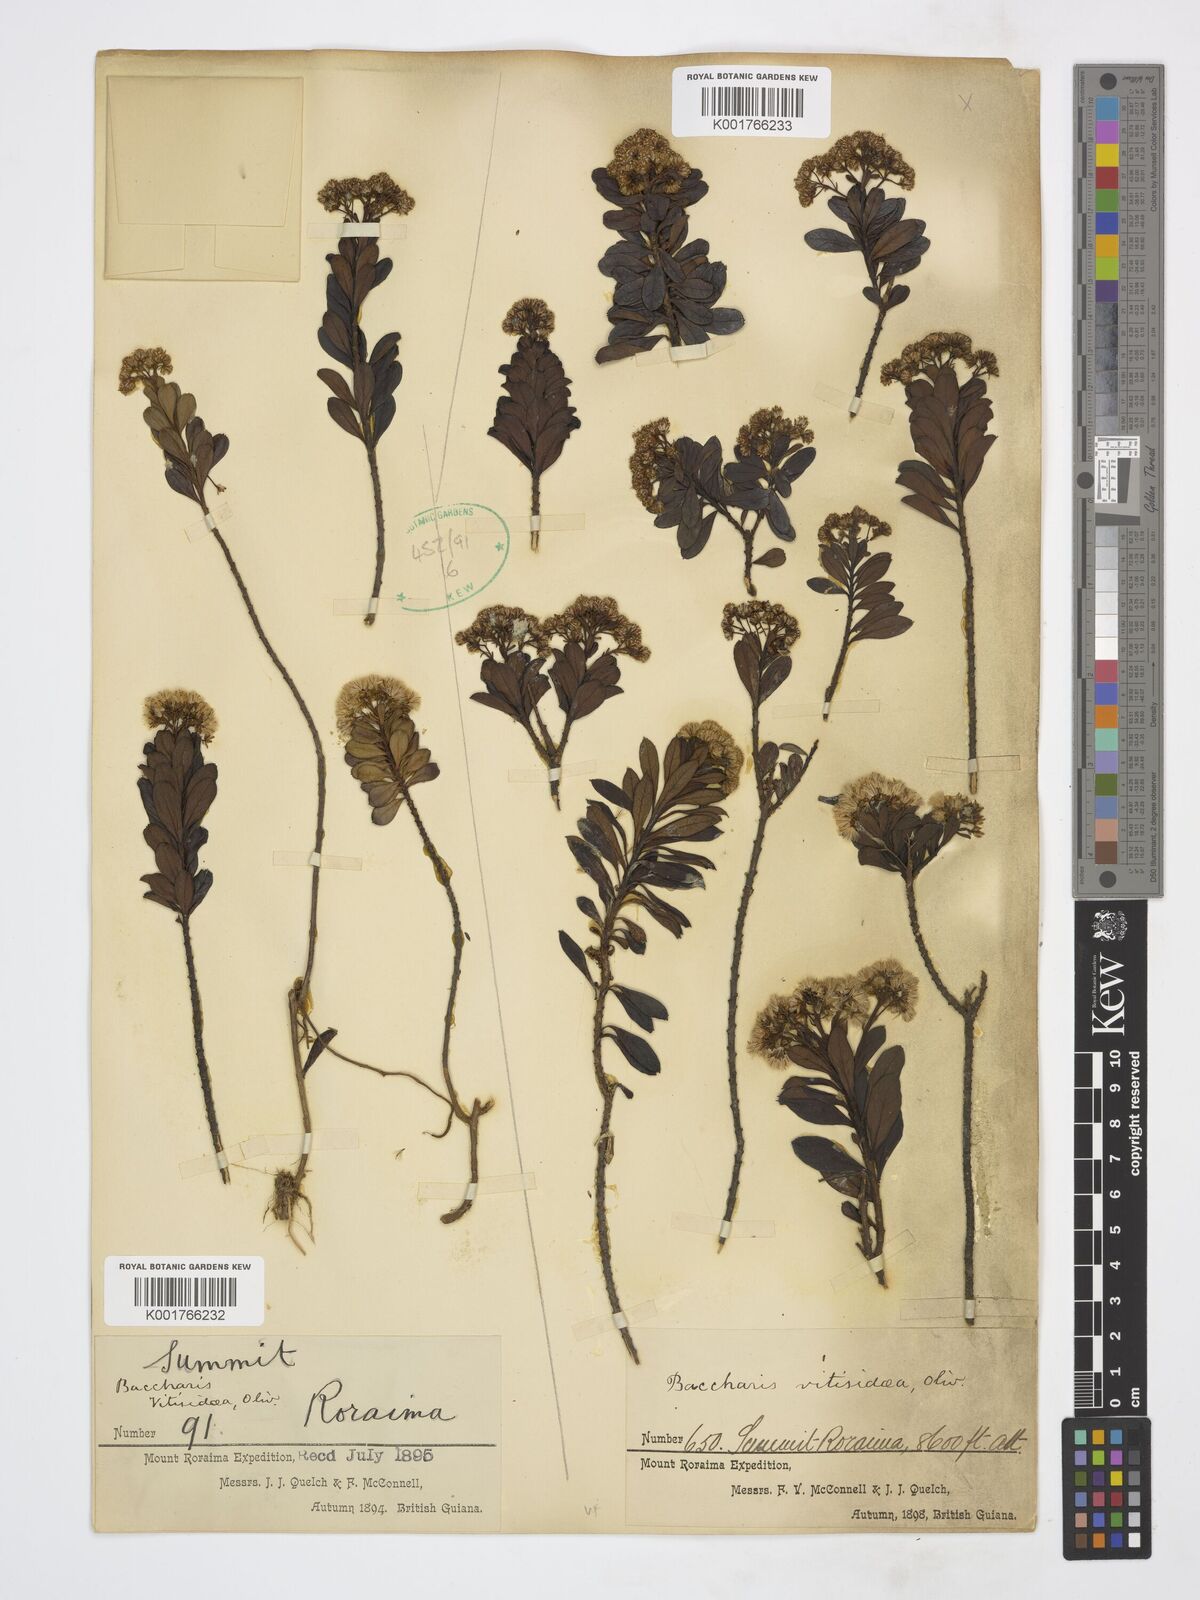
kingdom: Plantae
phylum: Tracheophyta
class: Magnoliopsida
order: Asterales
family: Asteraceae
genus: Baccharis
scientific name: Baccharis ligustrina
